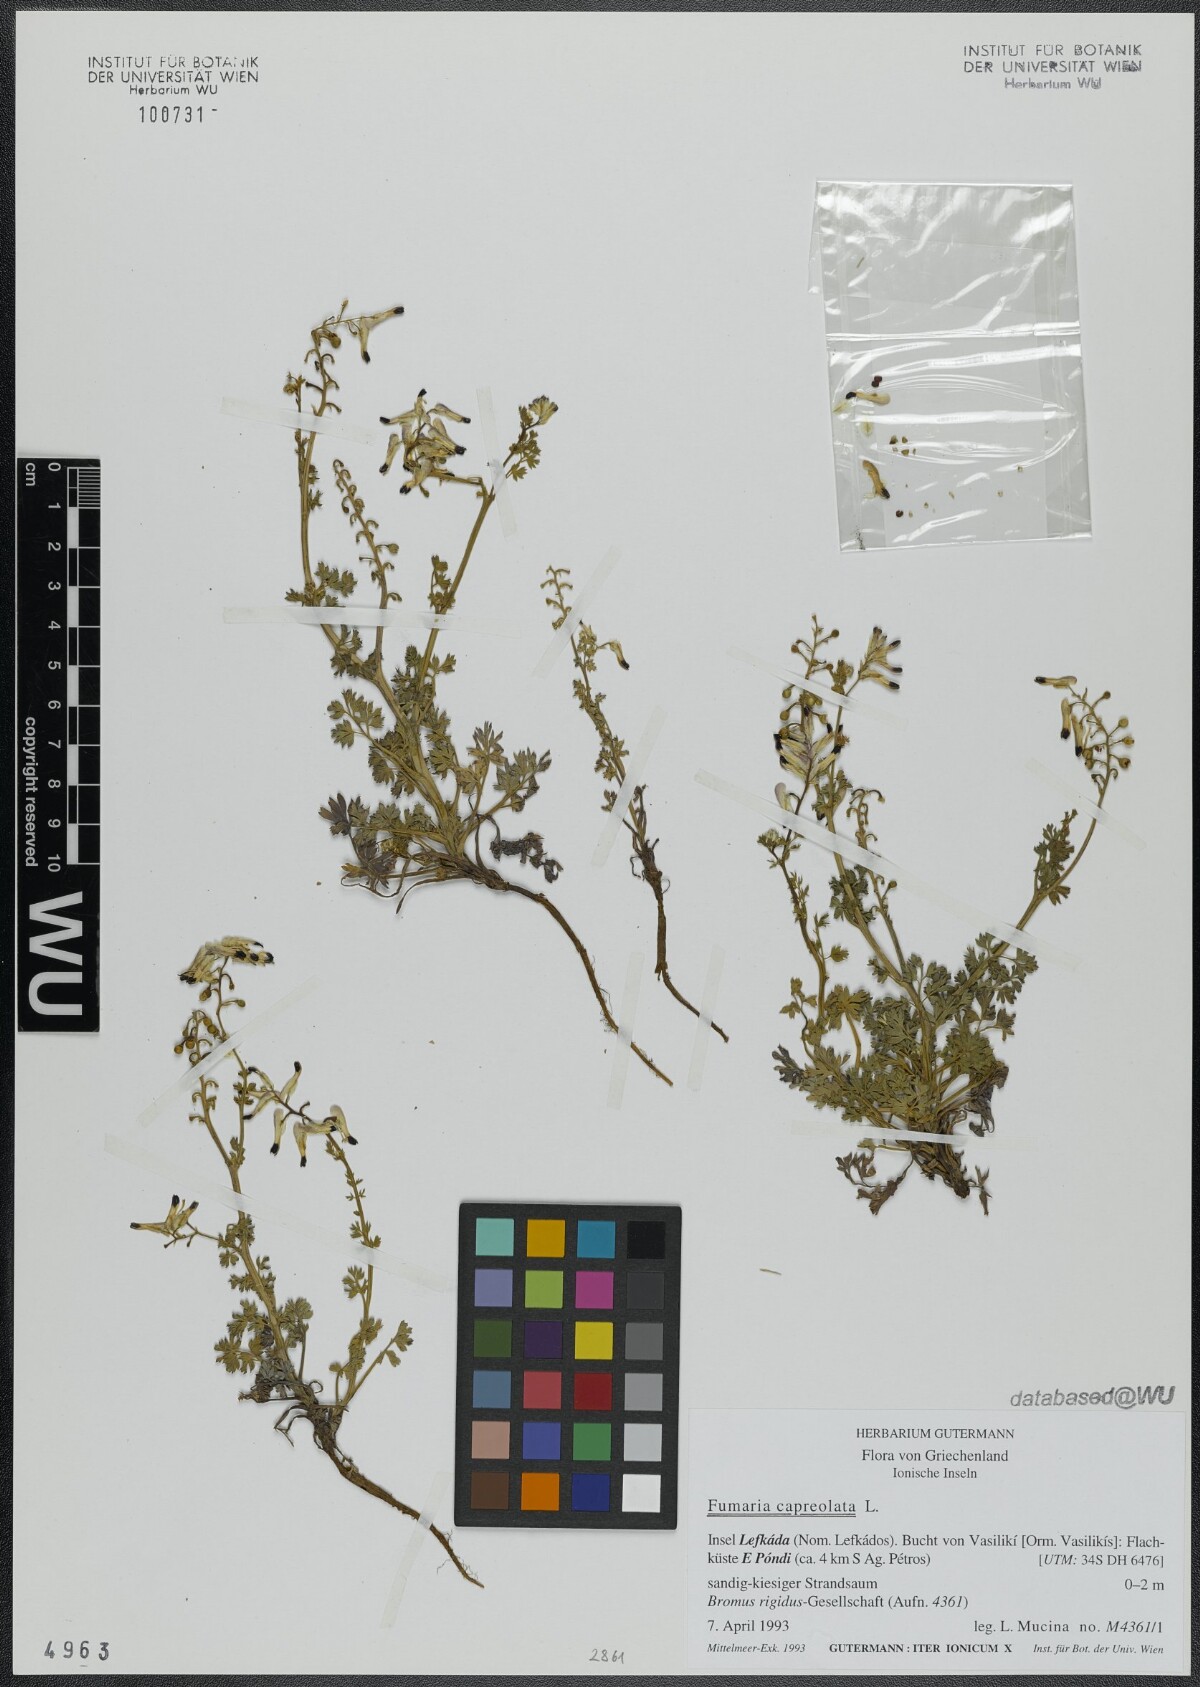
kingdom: Plantae
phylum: Tracheophyta
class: Magnoliopsida
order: Ranunculales
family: Papaveraceae
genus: Fumaria
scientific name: Fumaria capreolata
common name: White ramping-fumitory
